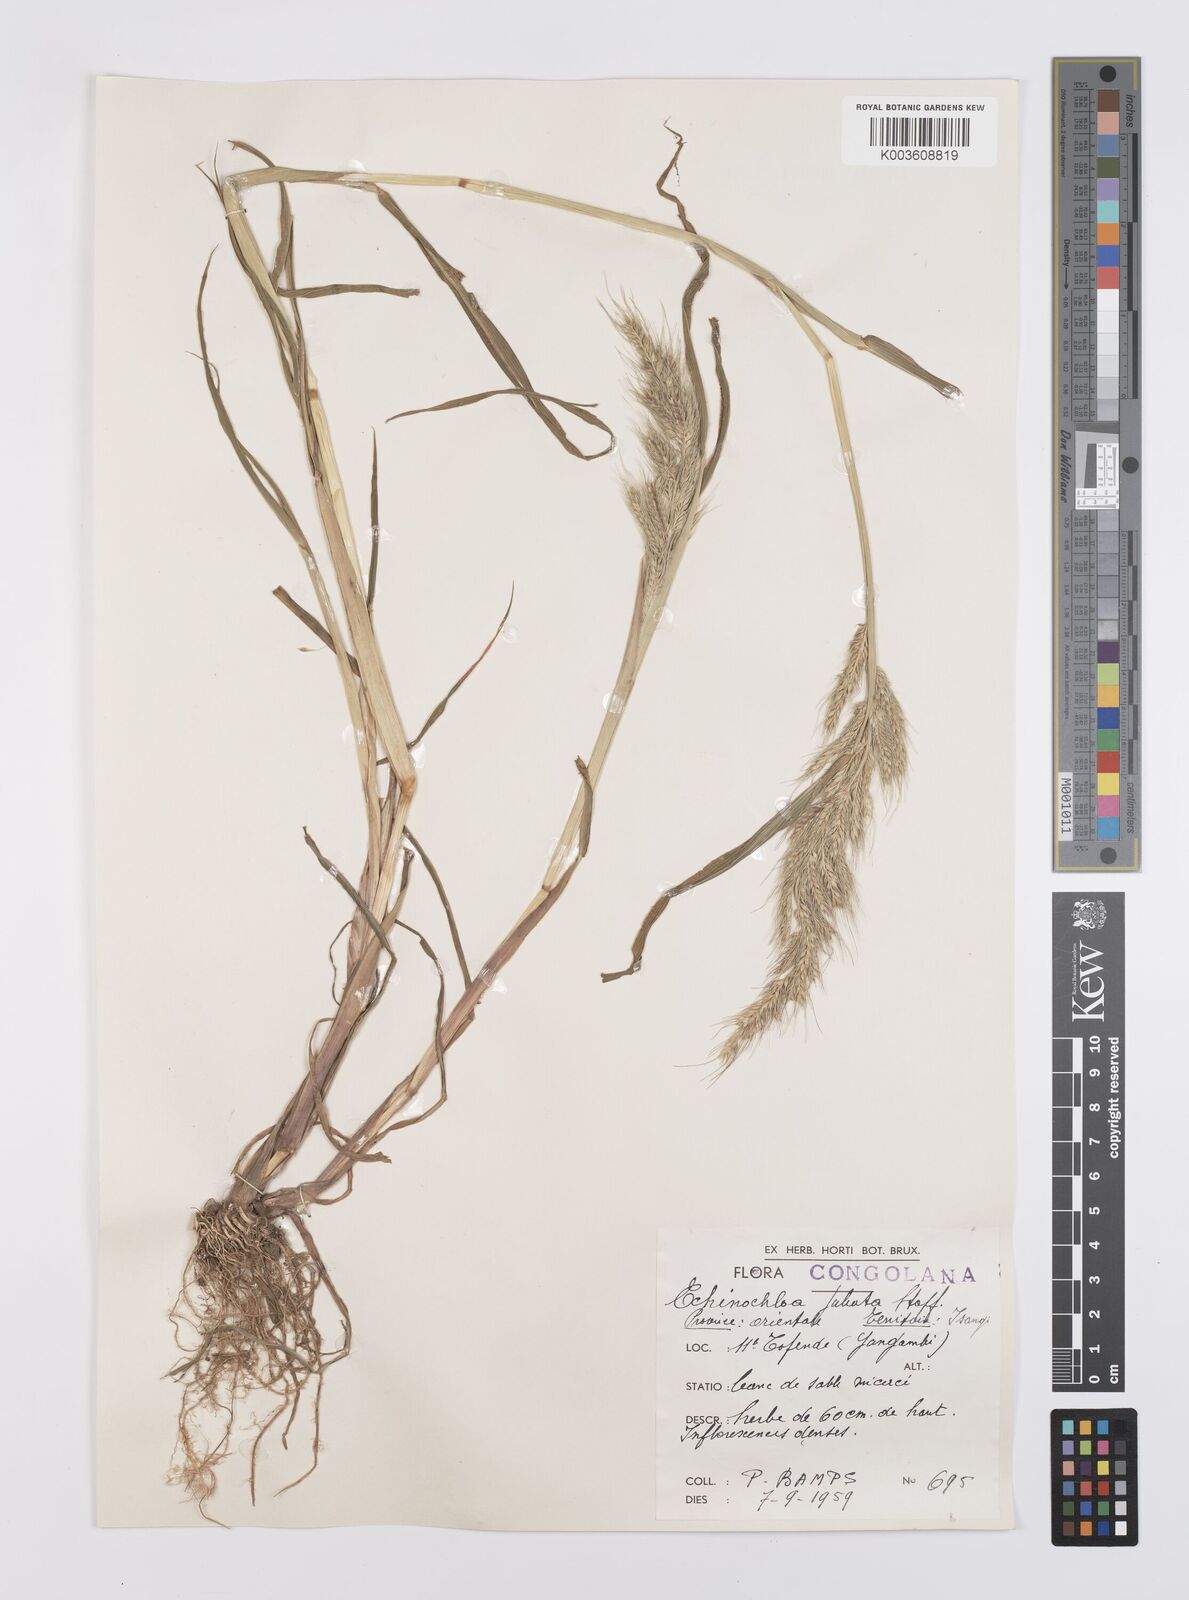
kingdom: Plantae
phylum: Tracheophyta
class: Liliopsida
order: Poales
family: Poaceae
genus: Echinochloa
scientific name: Echinochloa jubata
